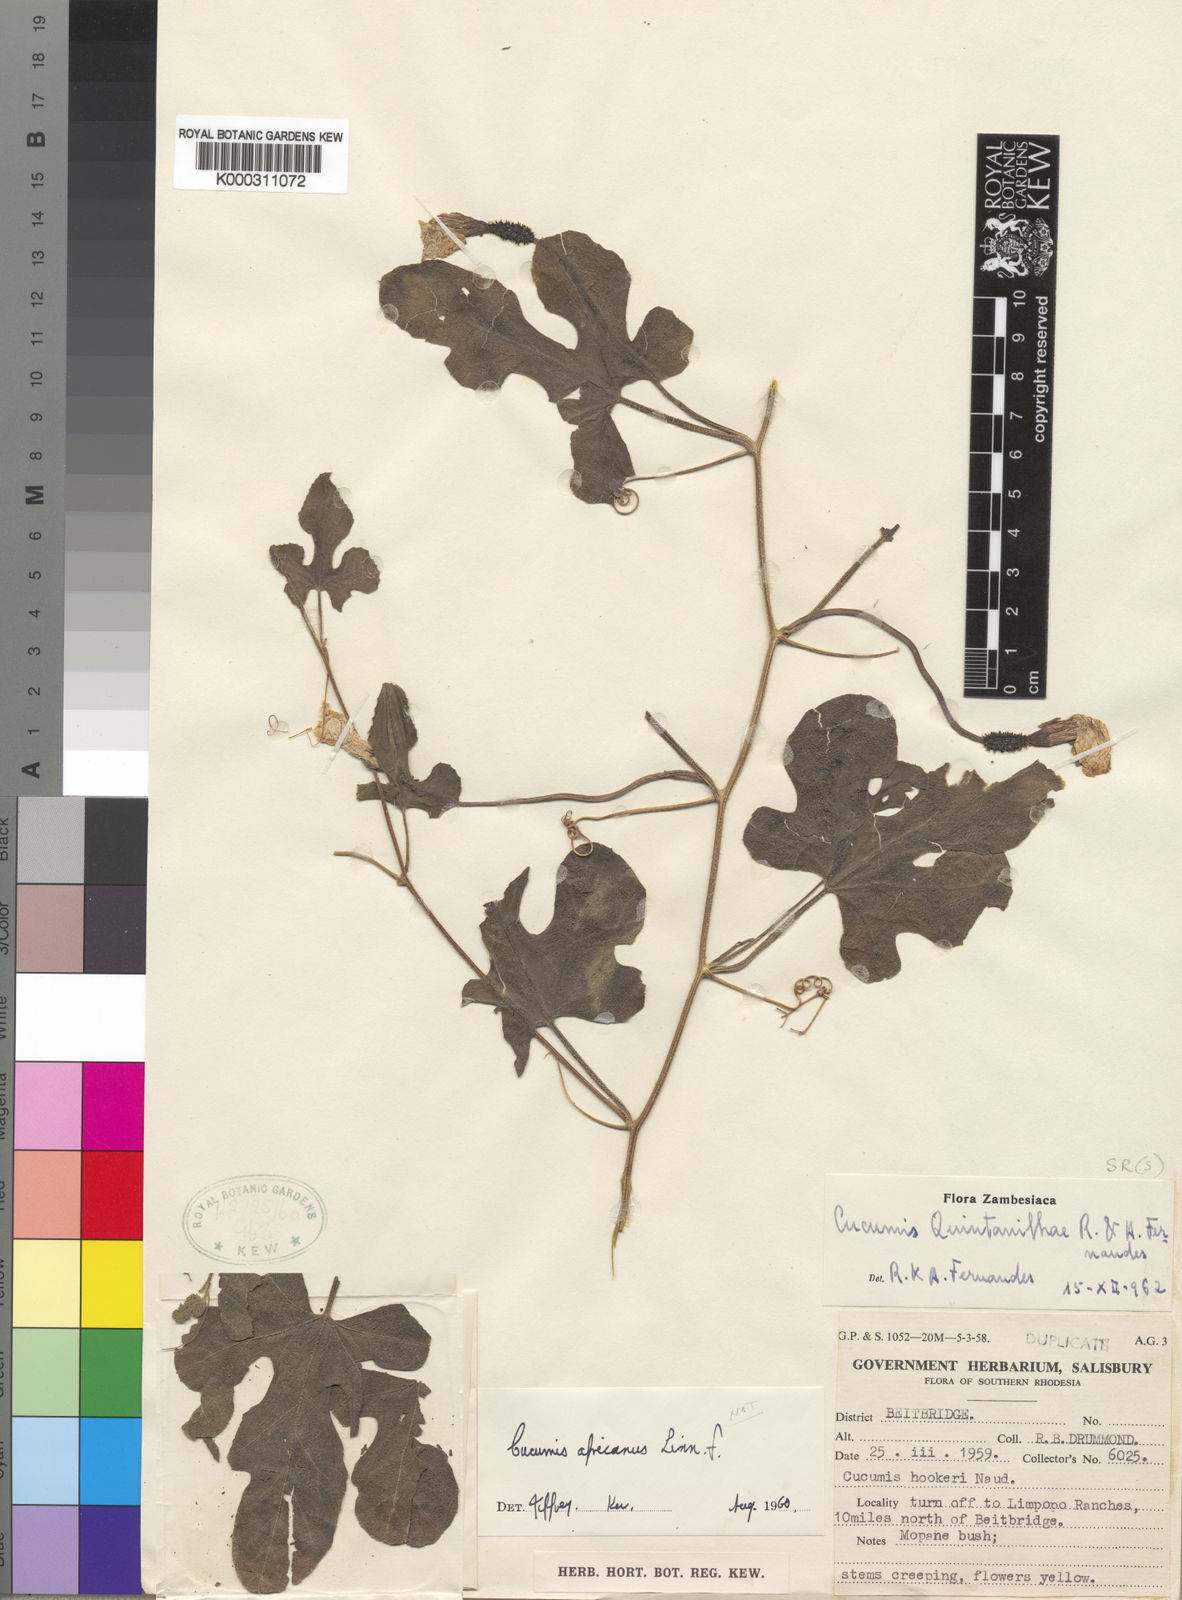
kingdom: Plantae
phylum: Tracheophyta
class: Magnoliopsida
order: Cucurbitales
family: Cucurbitaceae
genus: Cucumis
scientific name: Cucumis quintanilhae
